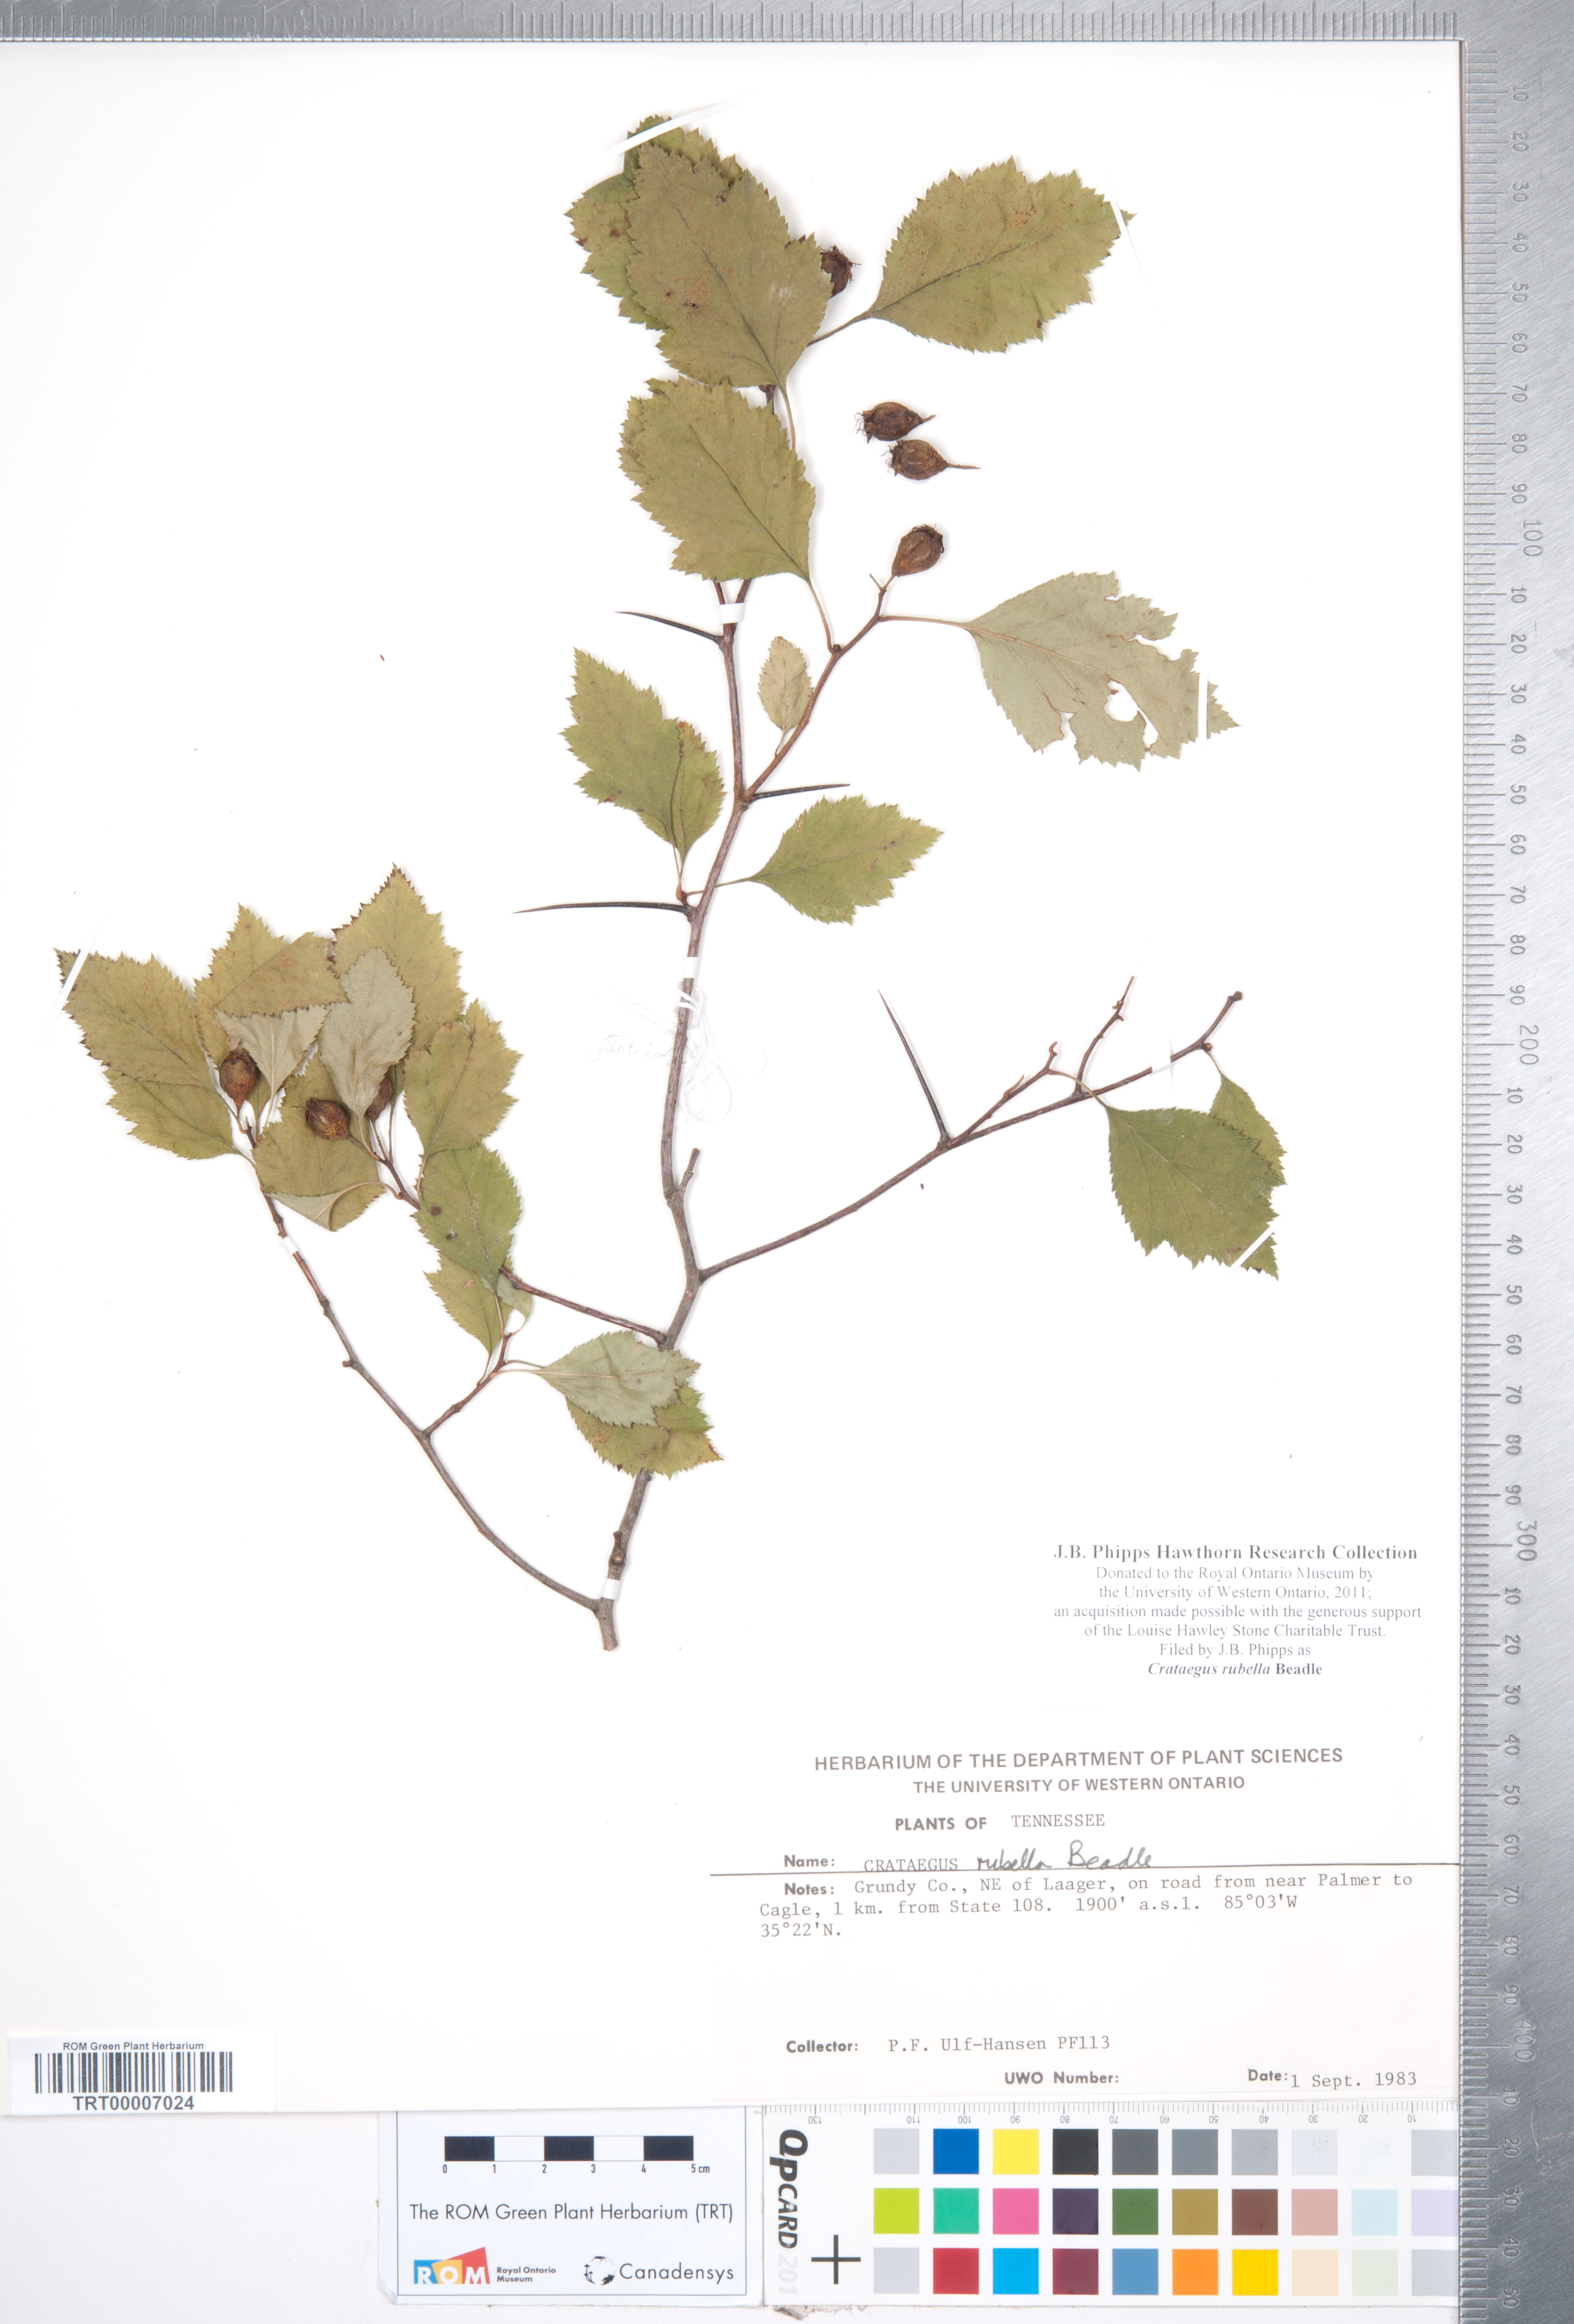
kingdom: Plantae
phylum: Tracheophyta
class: Magnoliopsida
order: Rosales
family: Rosaceae
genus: Crataegus
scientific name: Crataegus intricata
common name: Biltmore hawthorn
